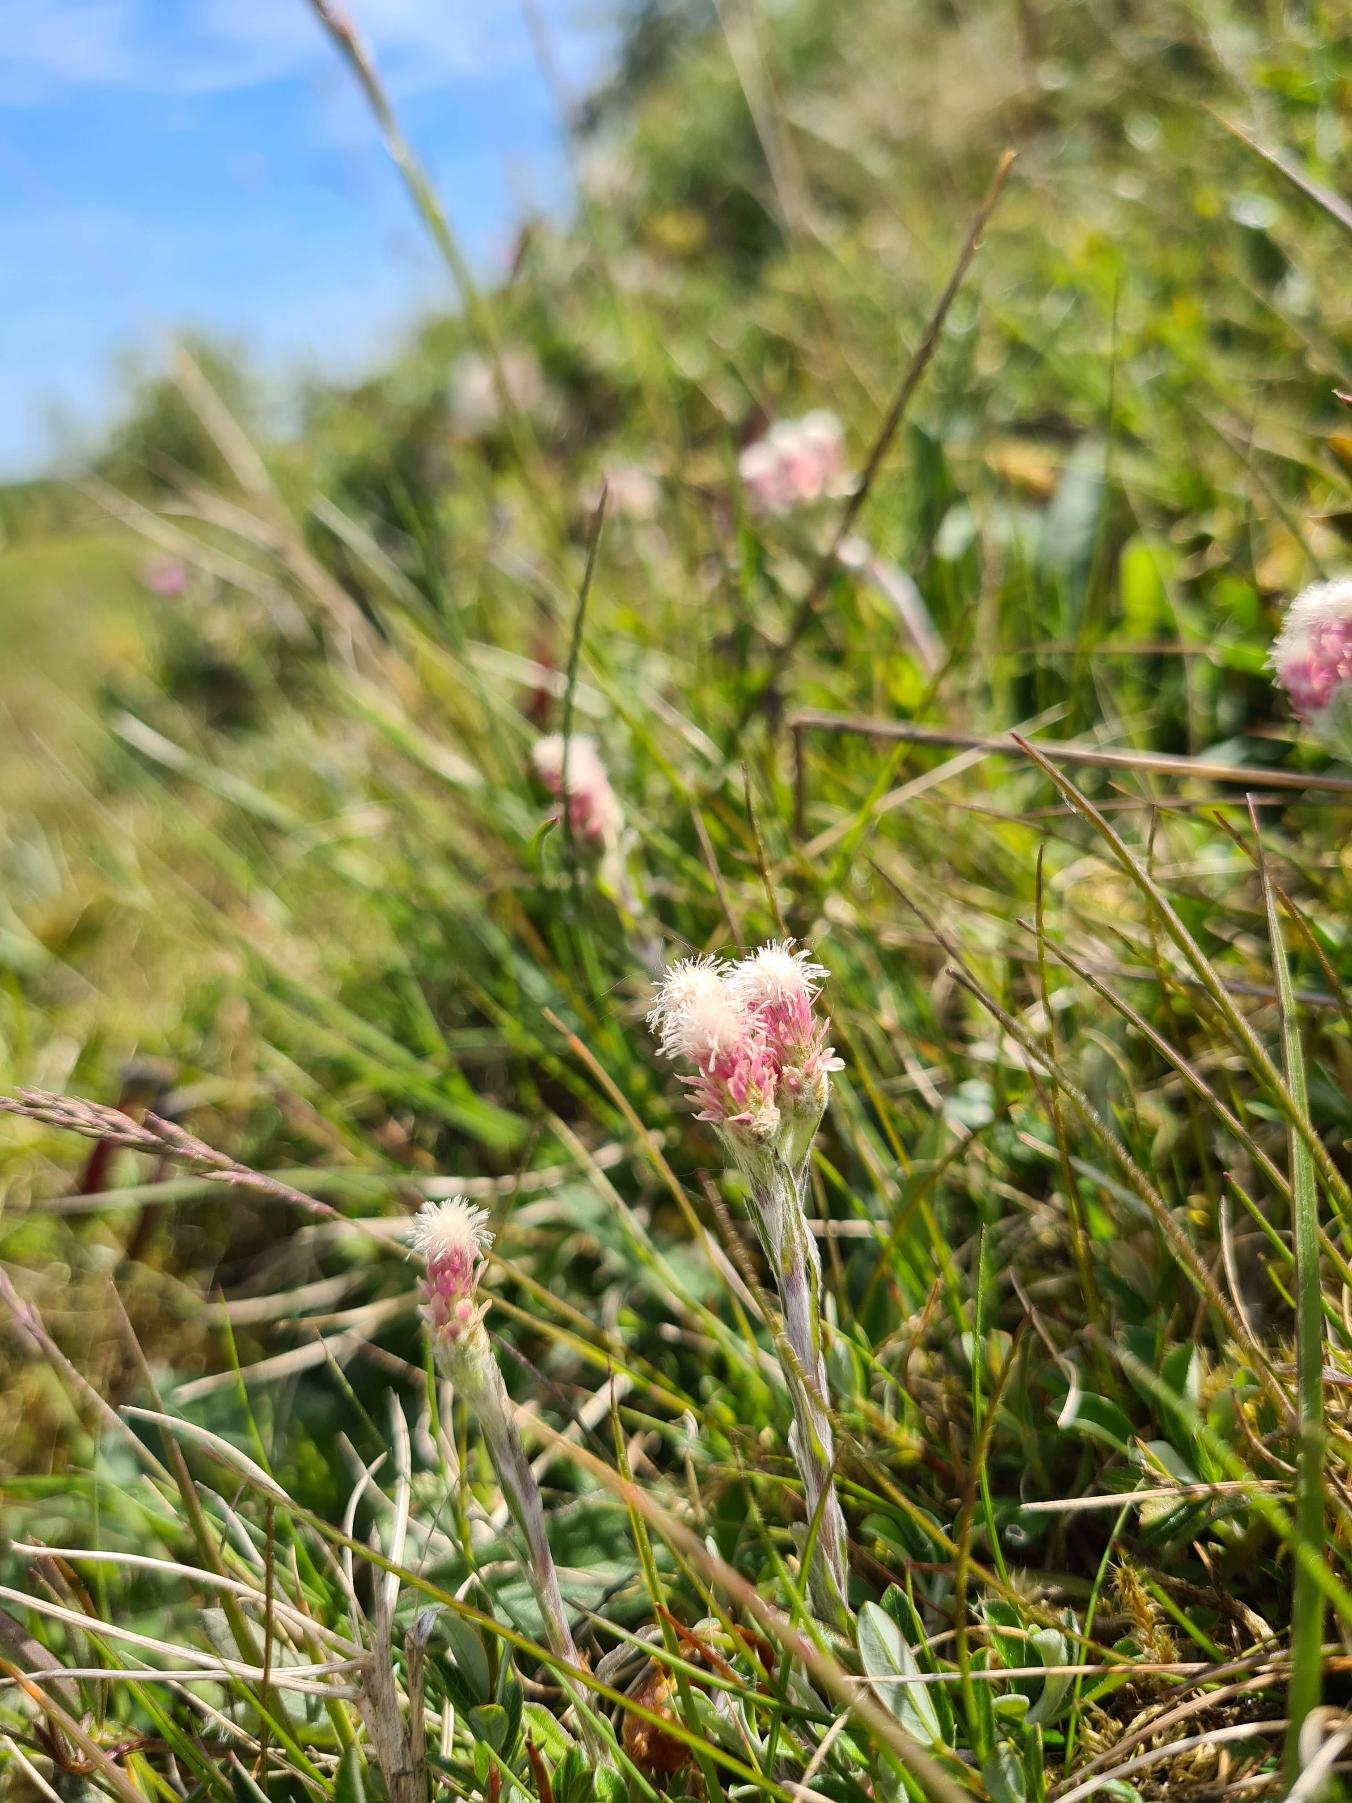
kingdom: Plantae
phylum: Tracheophyta
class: Magnoliopsida
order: Asterales
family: Asteraceae
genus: Antennaria
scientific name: Antennaria dioica
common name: Kattefod
